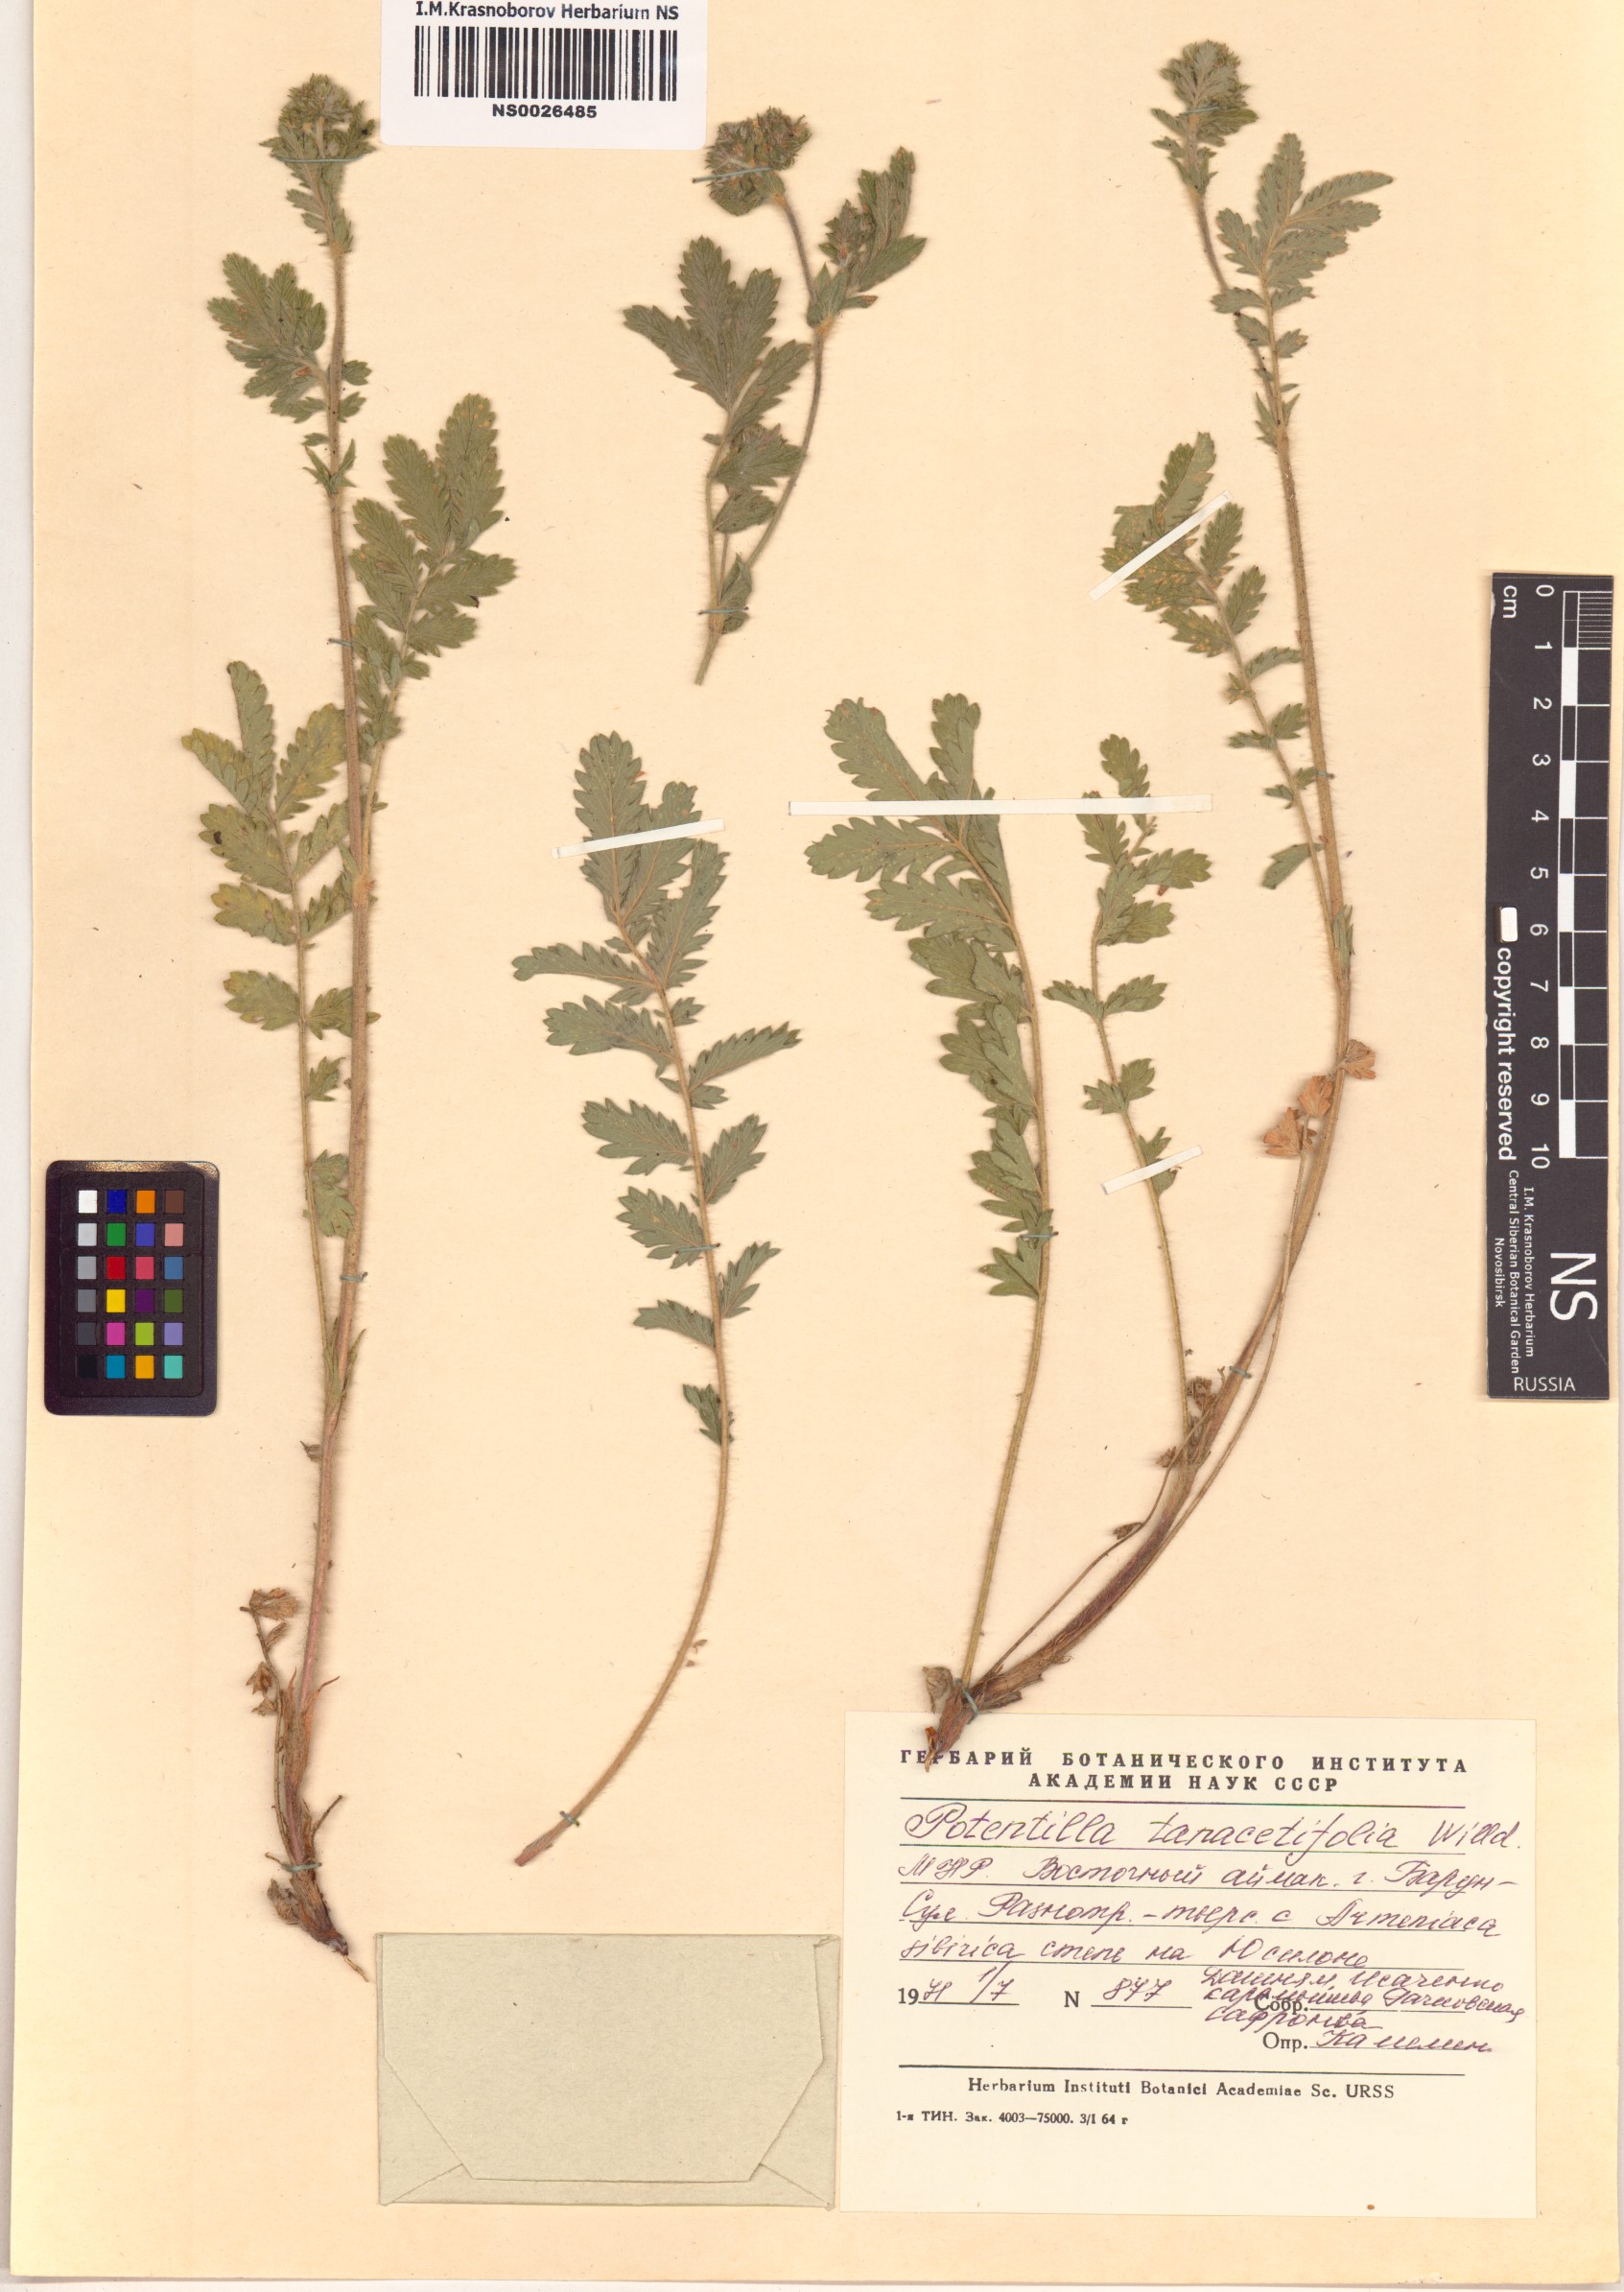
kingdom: Plantae
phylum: Tracheophyta
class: Magnoliopsida
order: Rosales
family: Rosaceae
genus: Potentilla
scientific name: Potentilla tanacetifolia
